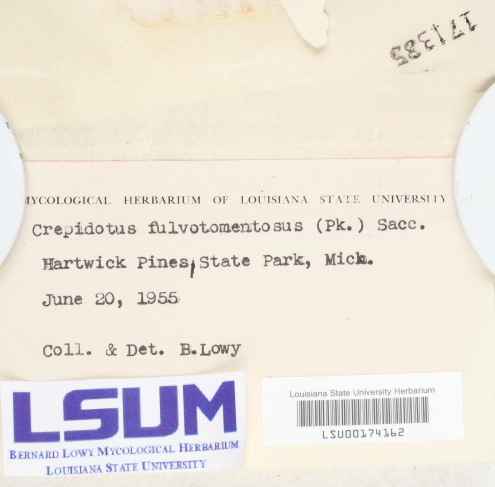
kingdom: Fungi
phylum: Basidiomycota
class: Agaricomycetes
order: Agaricales
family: Crepidotaceae
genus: Crepidotus
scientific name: Crepidotus fulvotomentosus
